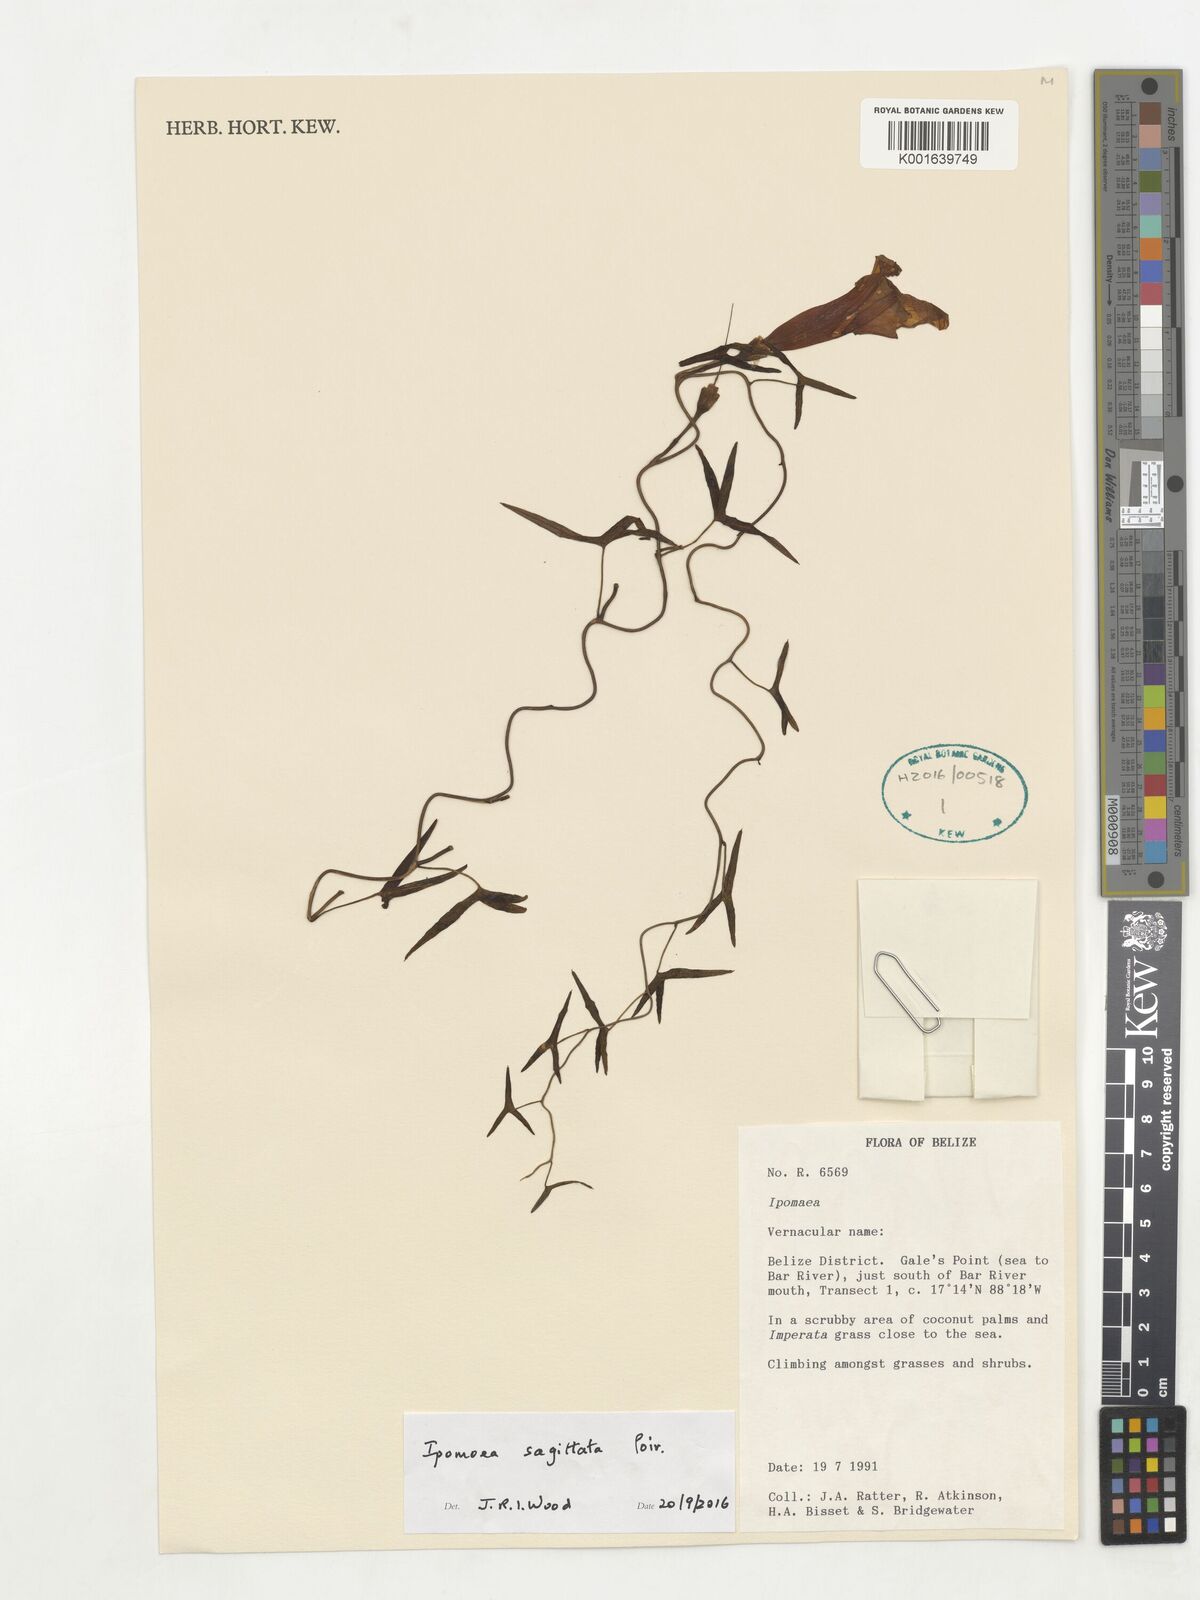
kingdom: Plantae
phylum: Tracheophyta
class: Magnoliopsida
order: Solanales
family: Convolvulaceae
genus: Ipomoea
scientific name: Ipomoea sagittata
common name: Saltmarsh morning glory
